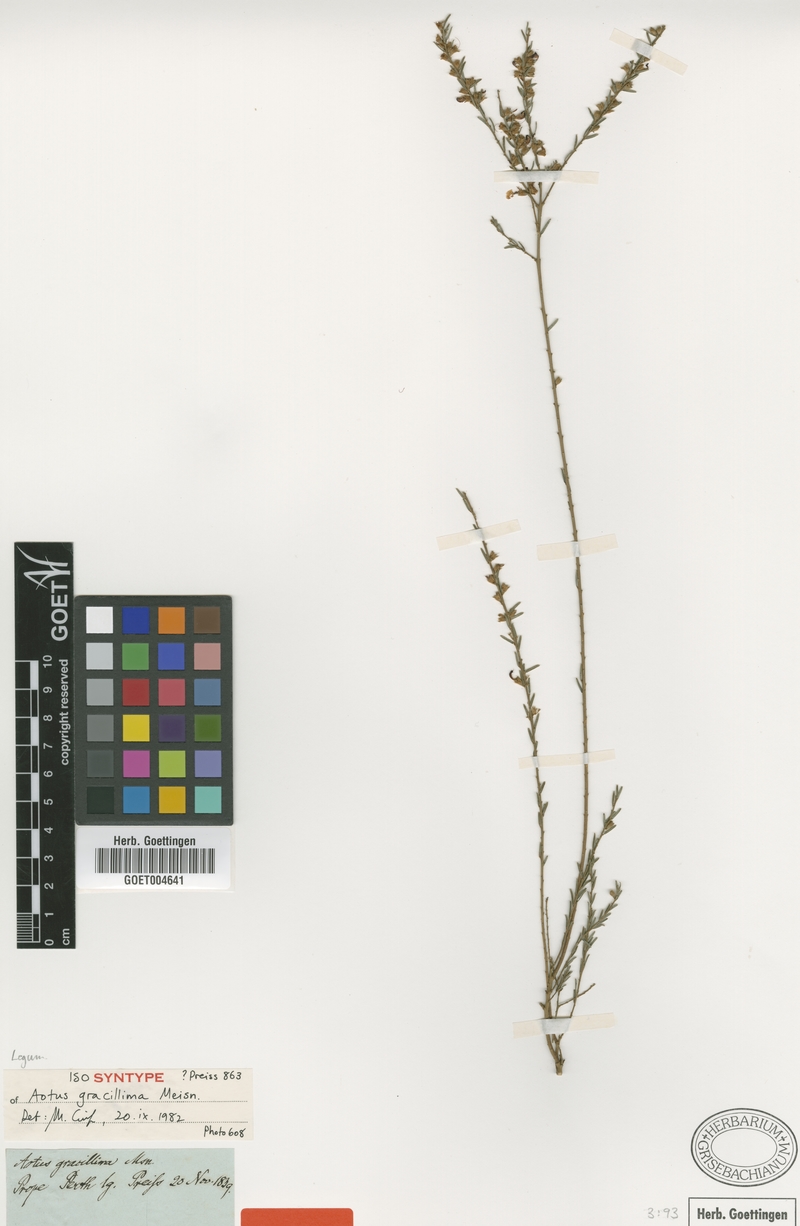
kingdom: Plantae
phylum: Tracheophyta
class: Magnoliopsida
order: Fabales
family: Fabaceae
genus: Aotus
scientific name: Aotus gracillima
